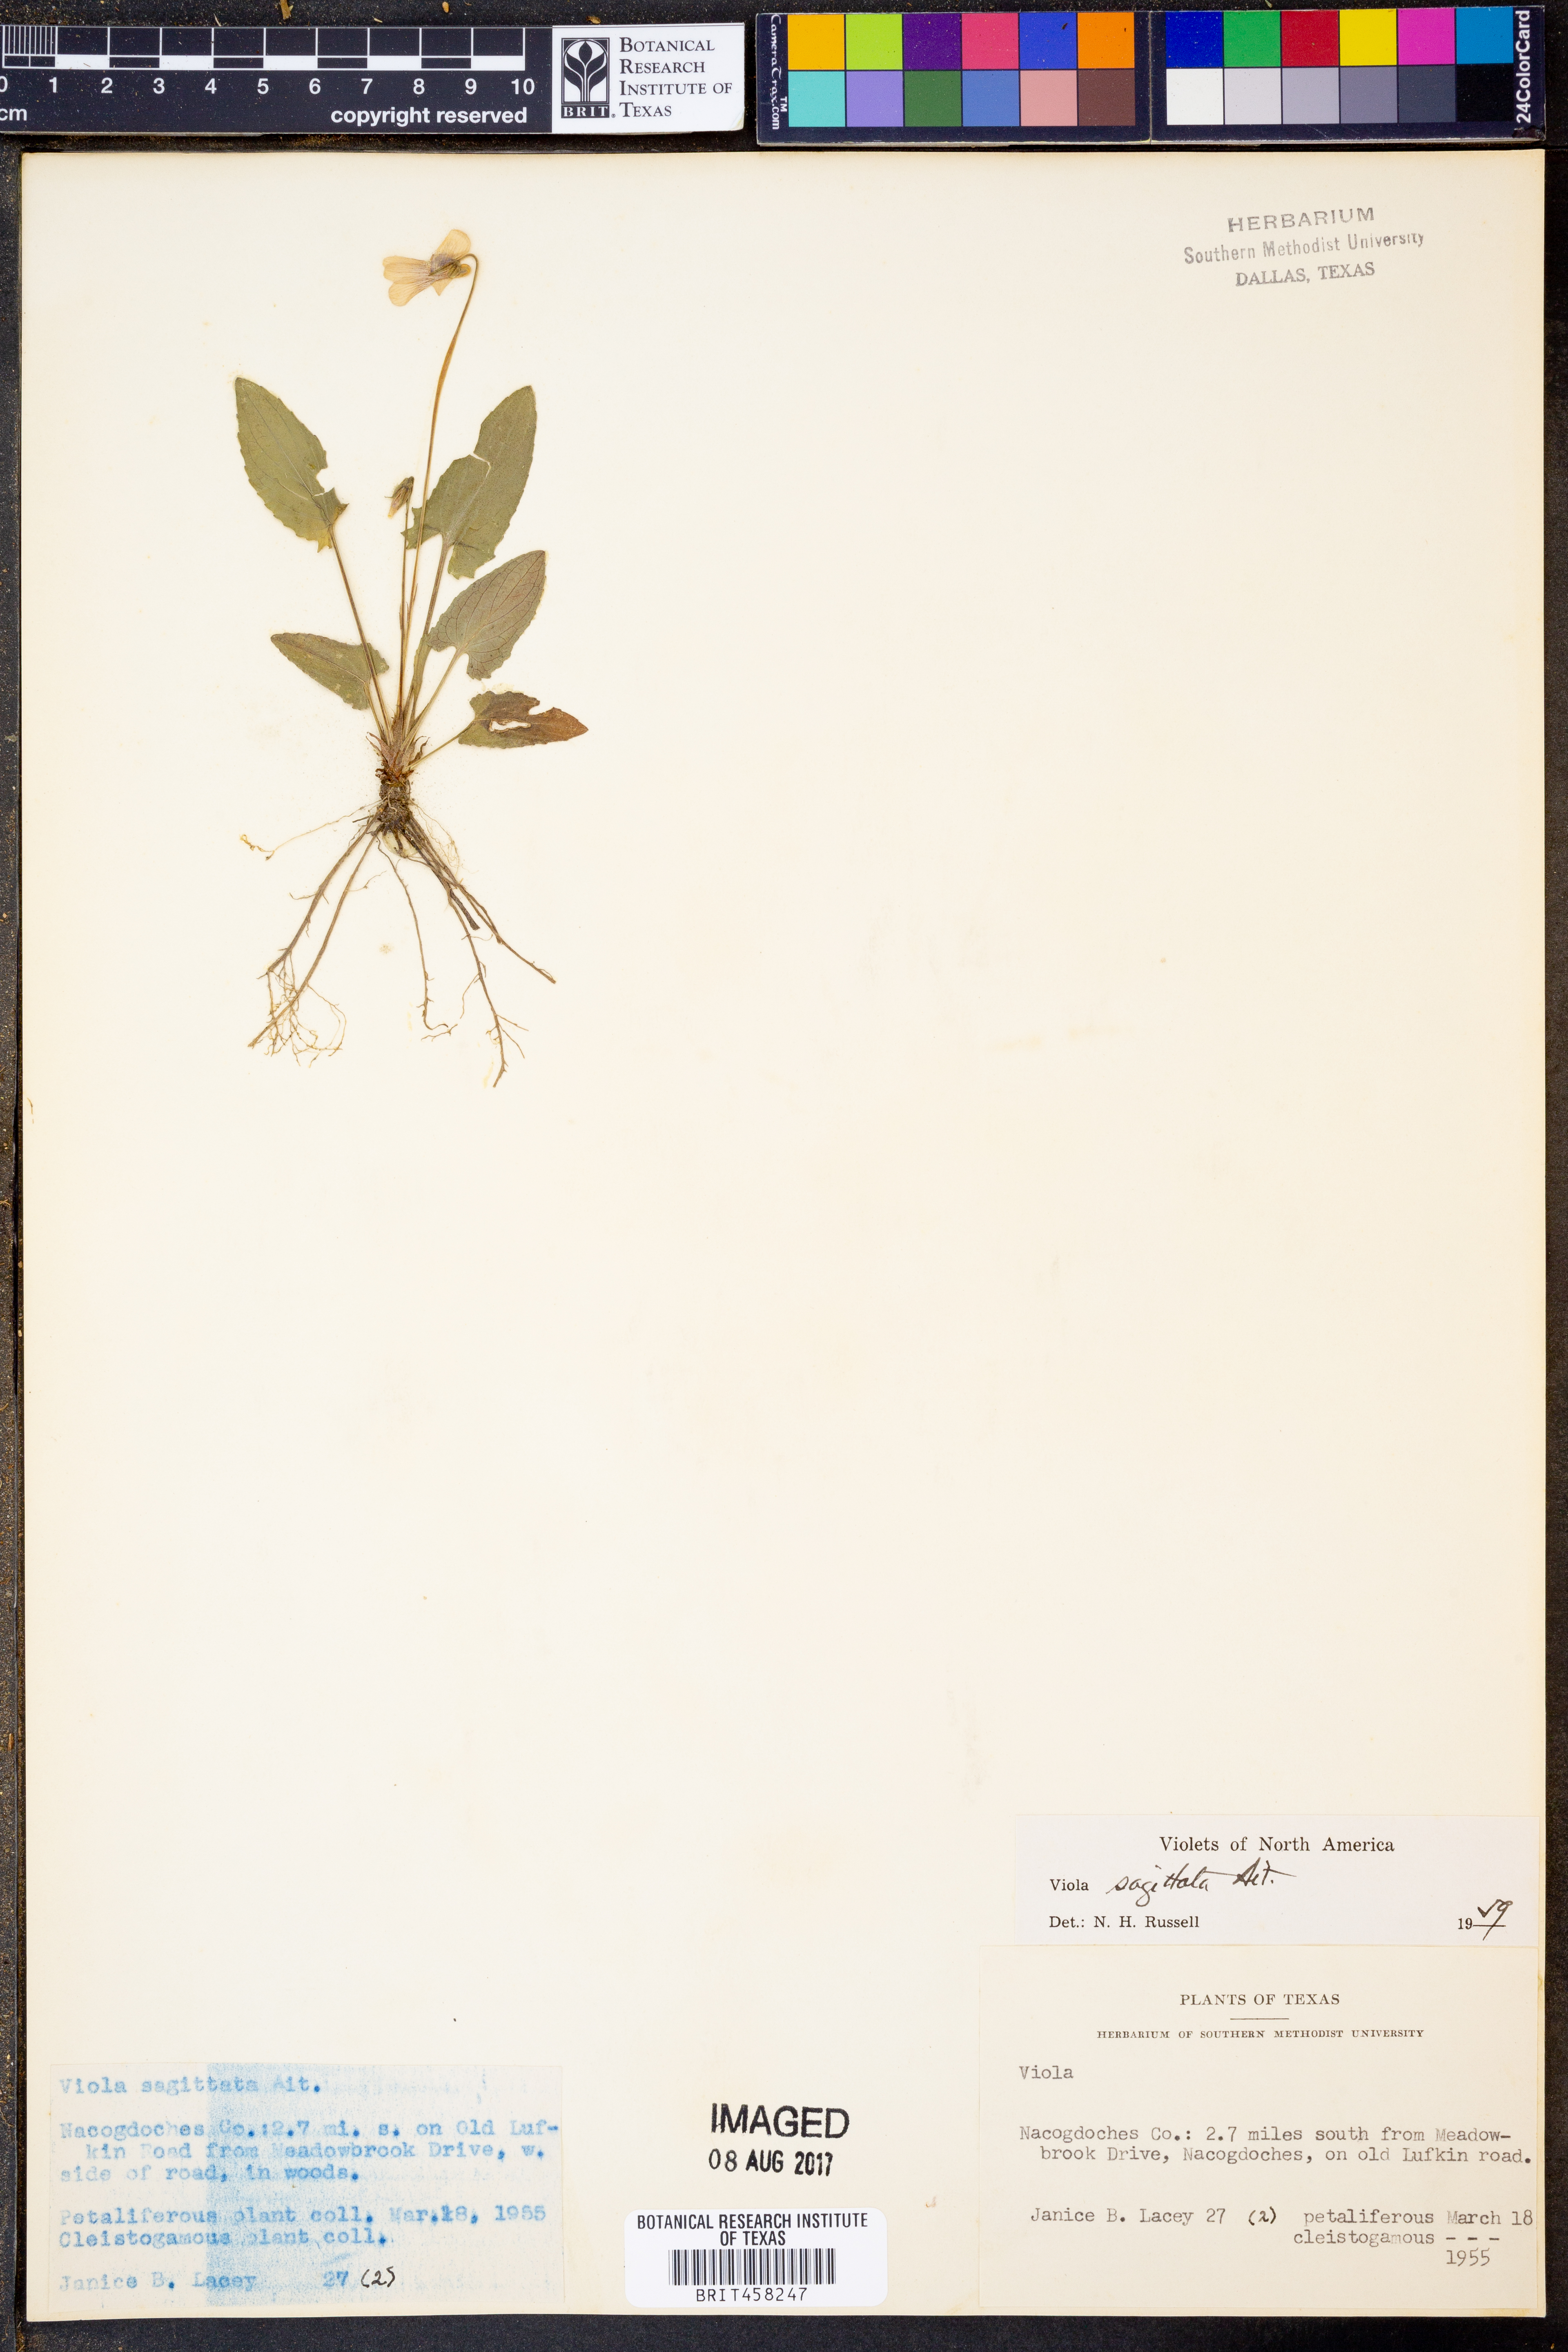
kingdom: Plantae
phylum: Tracheophyta
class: Magnoliopsida
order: Malpighiales
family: Violaceae
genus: Viola
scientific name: Viola sagittata
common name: Arrowhead violet
